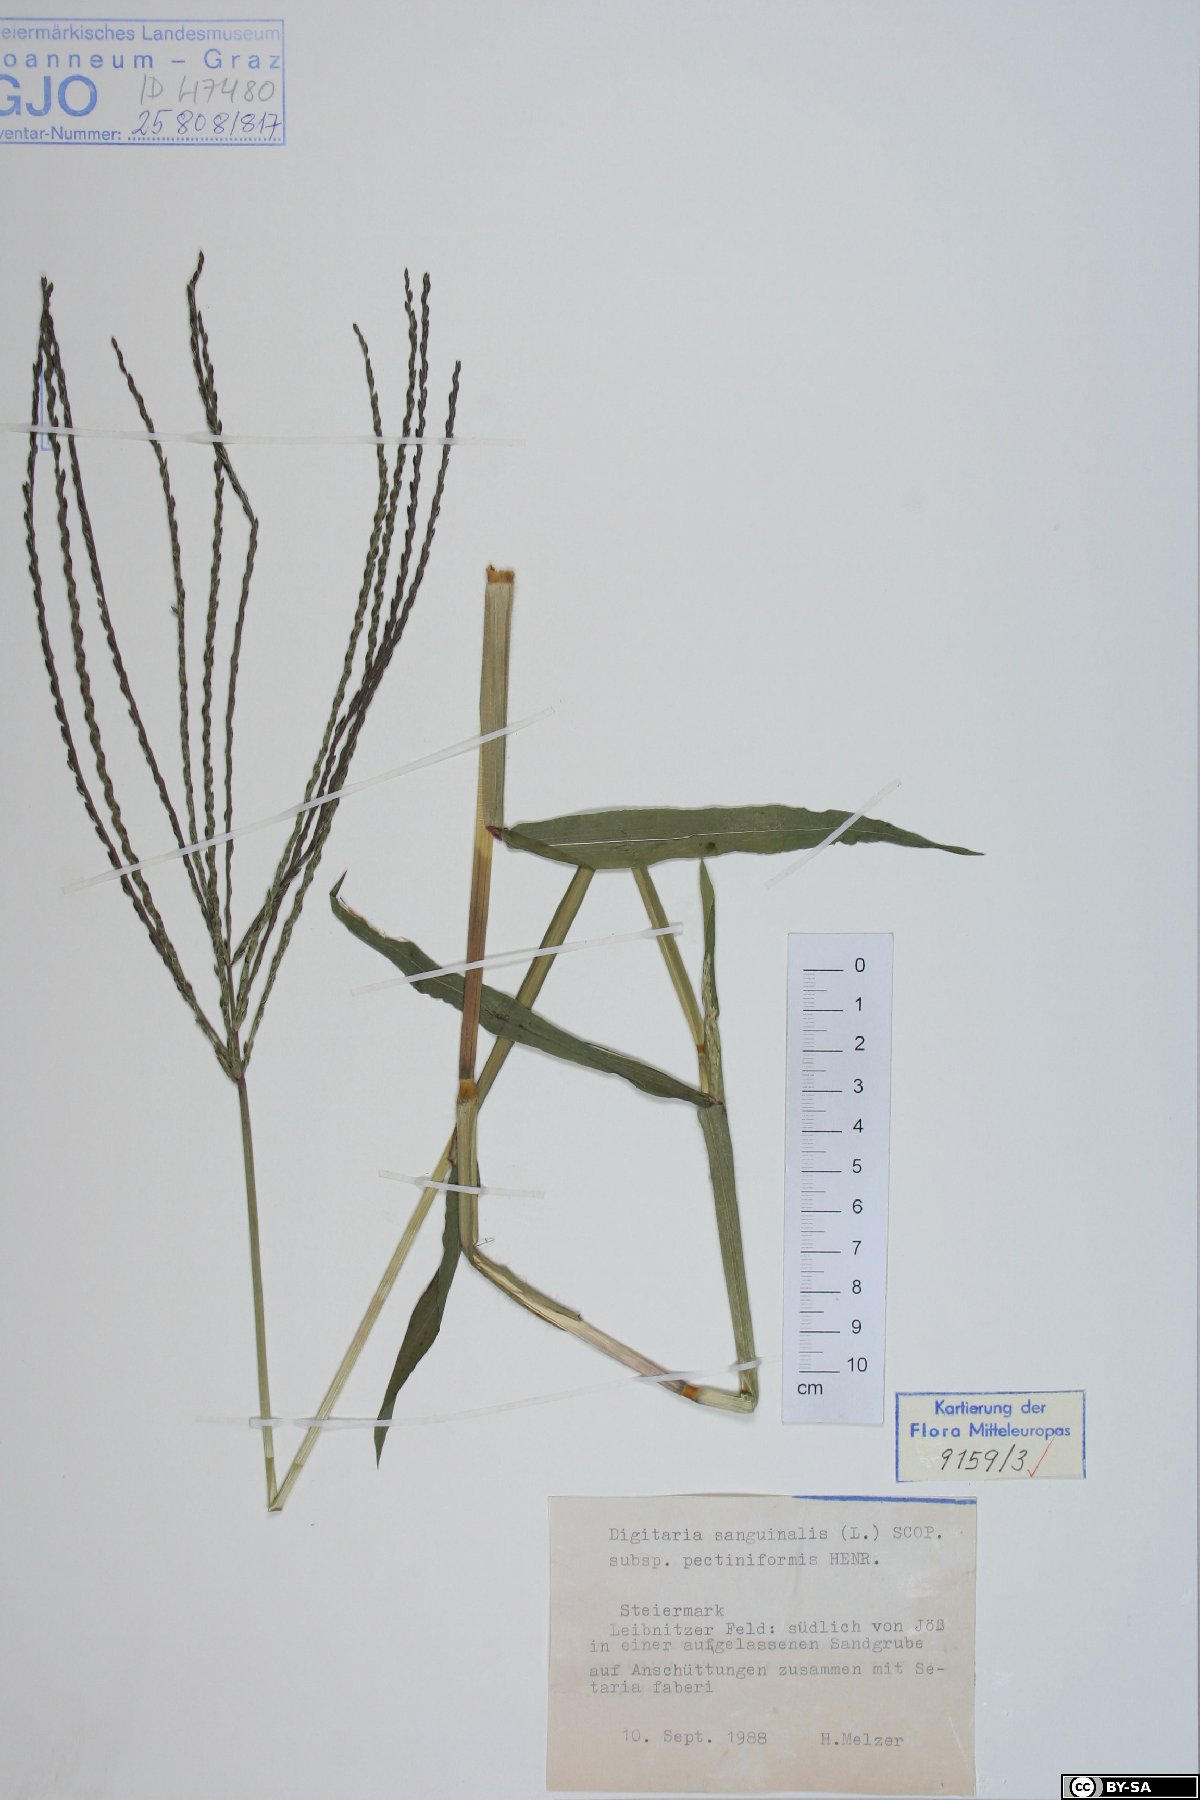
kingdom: Plantae
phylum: Tracheophyta
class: Liliopsida
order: Poales
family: Poaceae
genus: Digitaria
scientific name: Digitaria sanguinalis
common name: Hairy crabgrass
